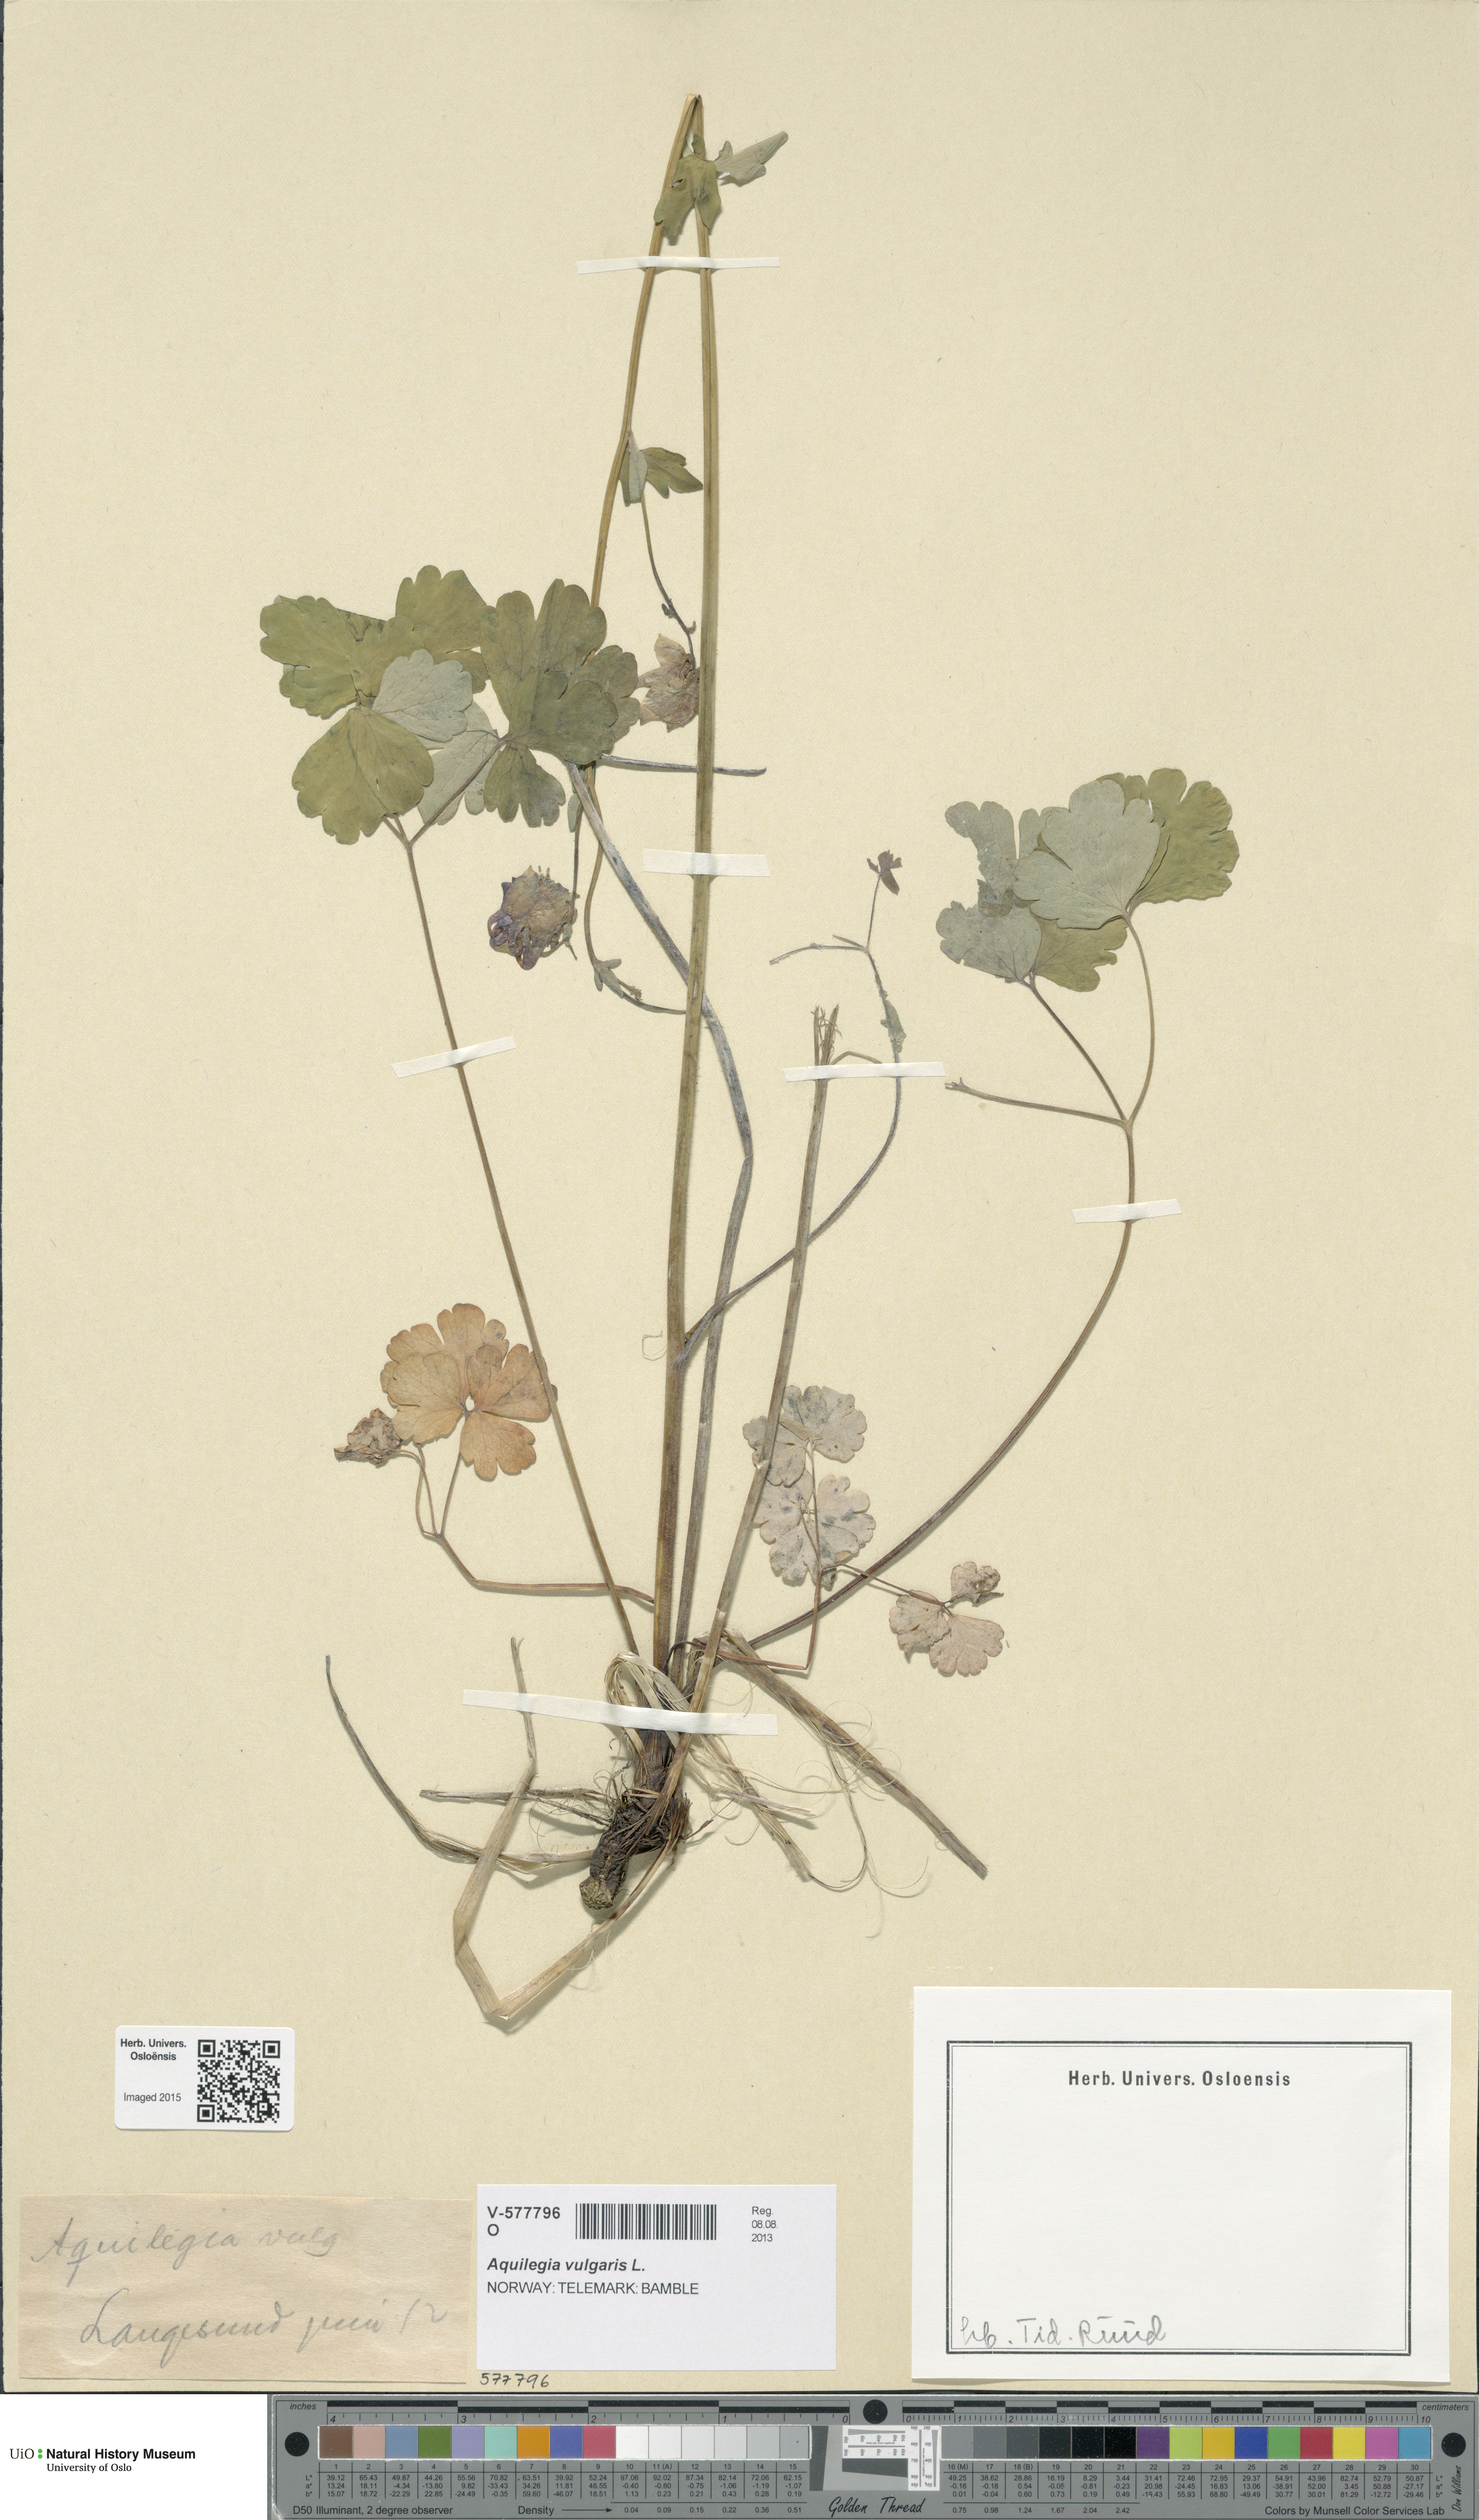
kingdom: Plantae
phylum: Tracheophyta
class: Magnoliopsida
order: Ranunculales
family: Ranunculaceae
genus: Aquilegia
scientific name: Aquilegia vulgaris
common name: Columbine
